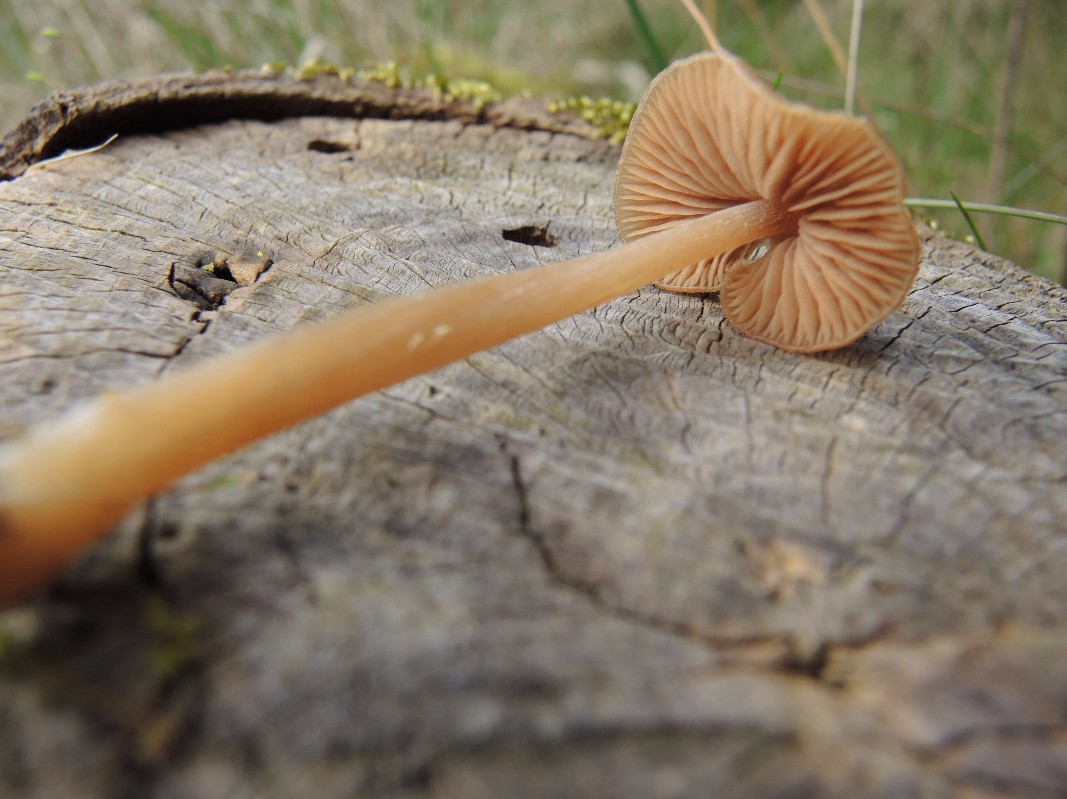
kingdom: Fungi
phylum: Basidiomycota
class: Agaricomycetes
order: Agaricales
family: Entolomataceae
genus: Entoloma
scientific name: Entoloma cuneatum
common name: dunstokket rødblad
